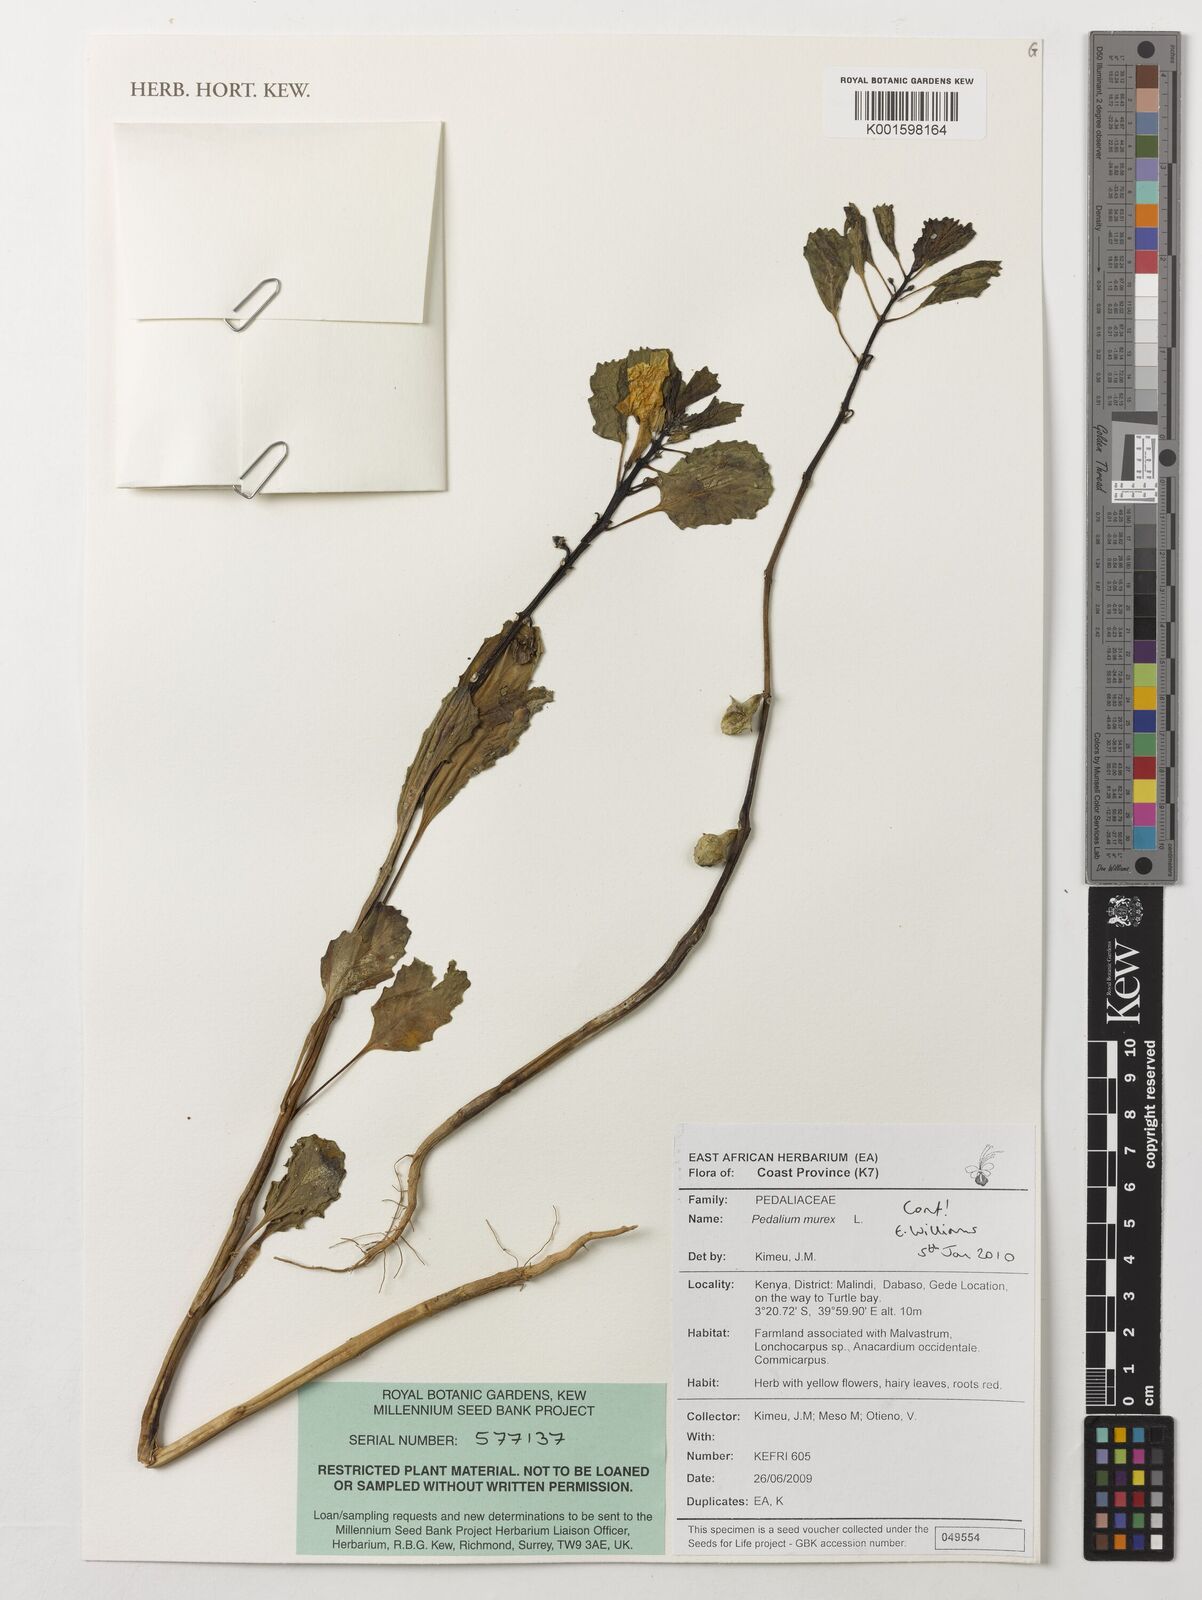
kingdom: Plantae
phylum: Tracheophyta
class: Magnoliopsida
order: Lamiales
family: Pedaliaceae
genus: Pedalium
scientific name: Pedalium murex
